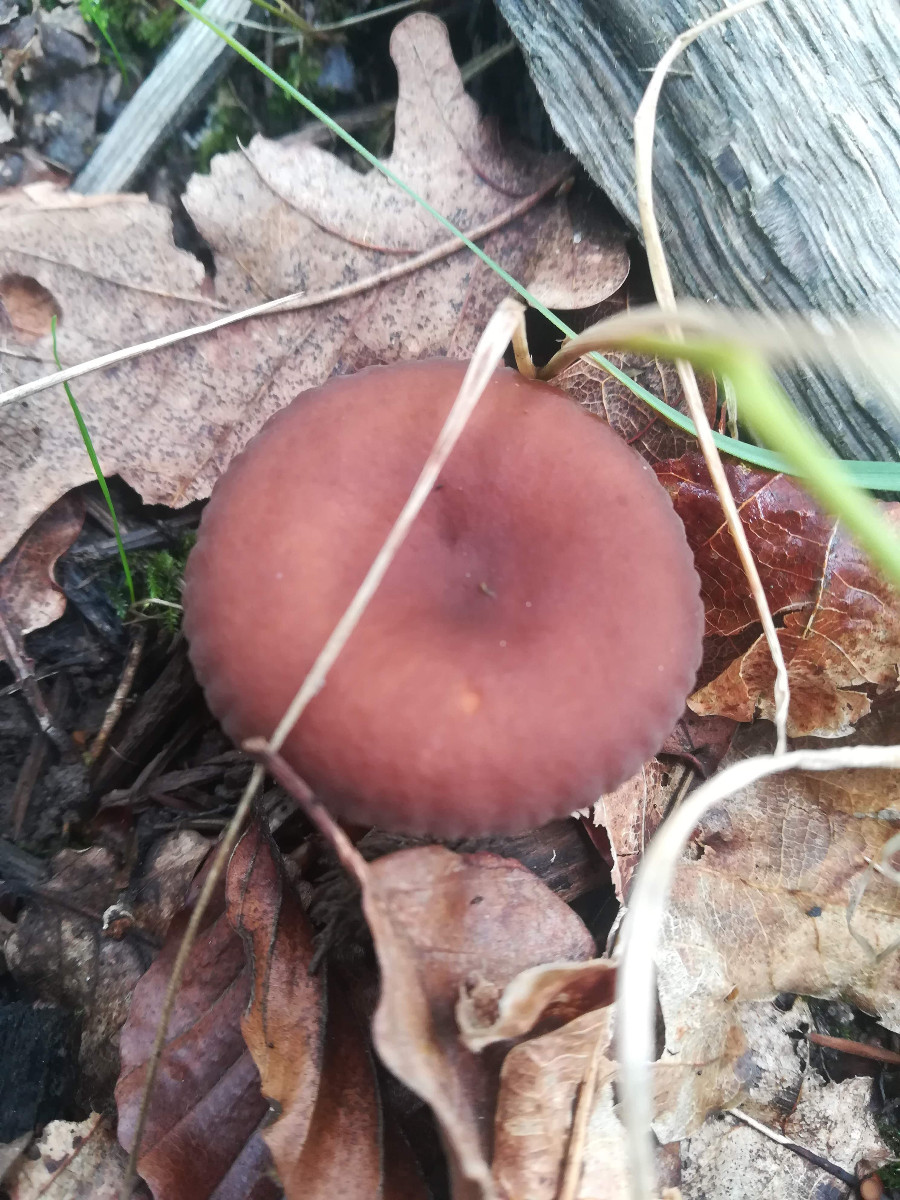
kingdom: Fungi
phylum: Basidiomycota
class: Agaricomycetes
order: Russulales
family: Russulaceae
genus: Lactarius
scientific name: Lactarius camphoratus
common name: kamfer-mælkehat
